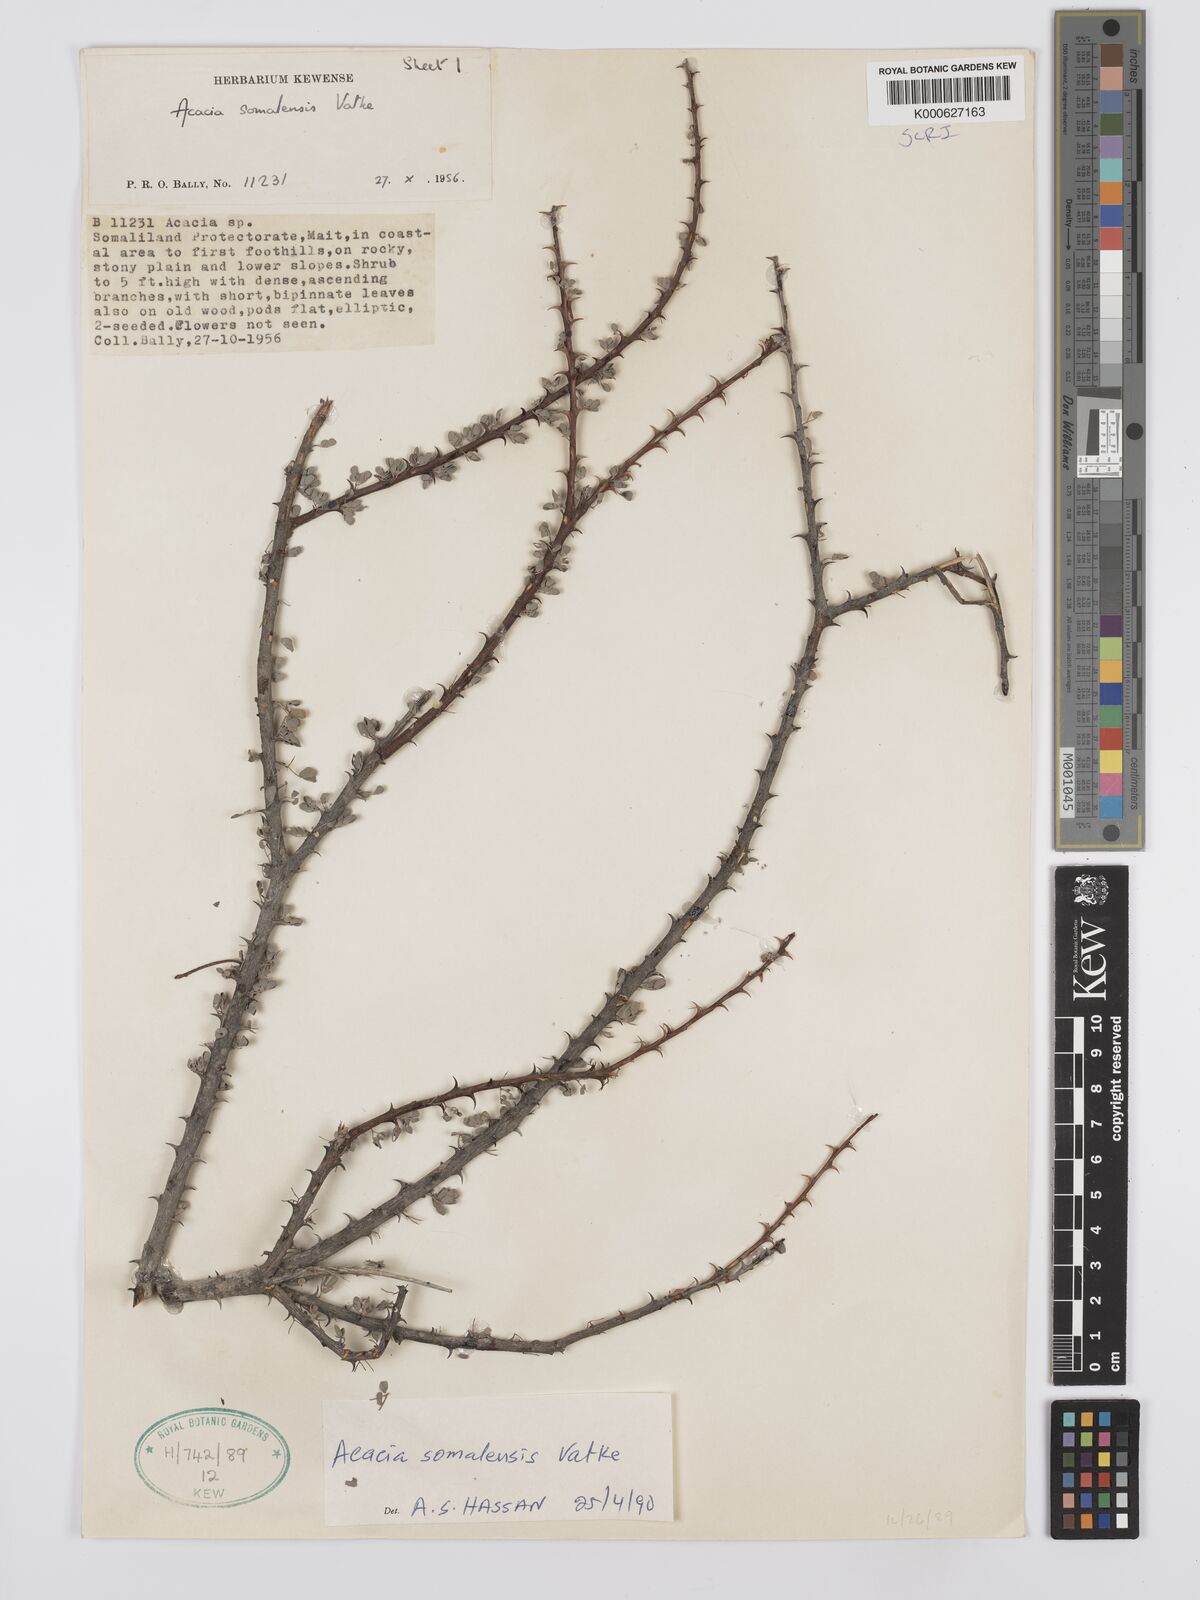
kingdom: Plantae
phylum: Tracheophyta
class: Magnoliopsida
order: Fabales
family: Fabaceae
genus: Senegalia
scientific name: Senegalia somalensis
